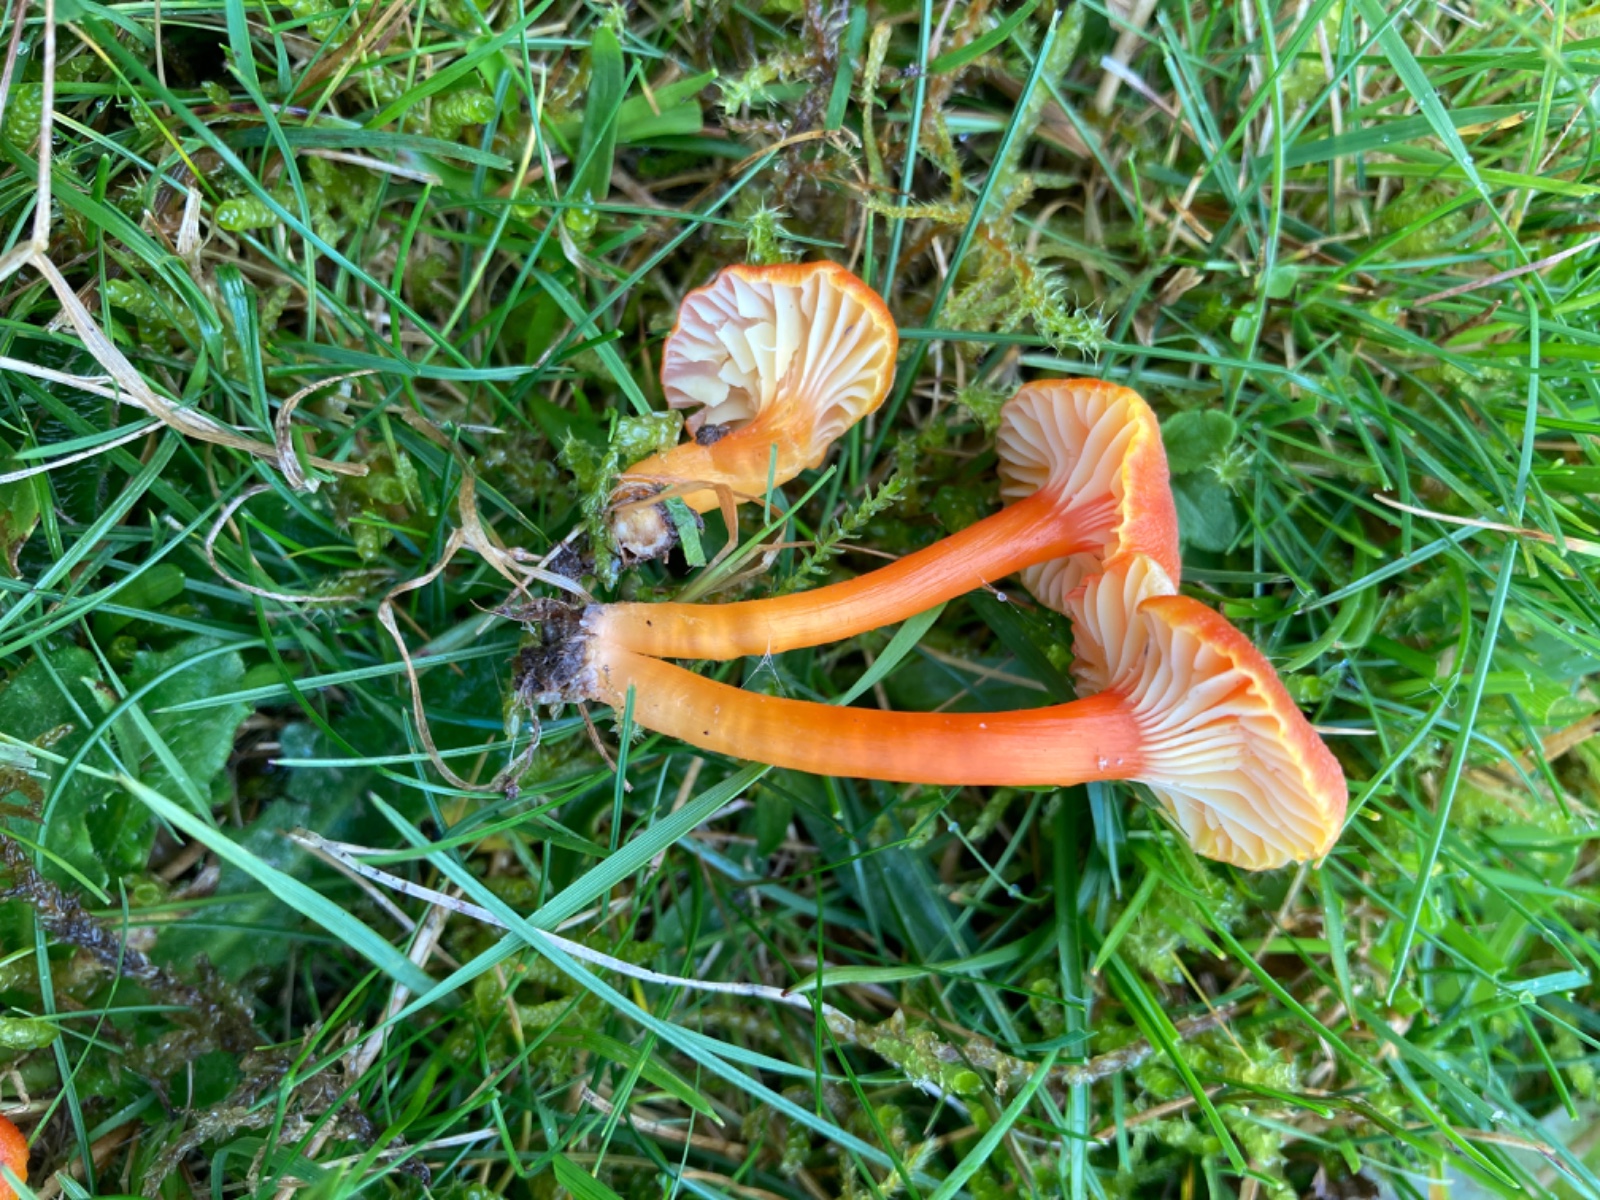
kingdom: Fungi
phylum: Basidiomycota
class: Agaricomycetes
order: Agaricales
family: Hygrophoraceae
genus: Hygrocybe
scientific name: Hygrocybe cantharellus
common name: kantarel-vokshat
